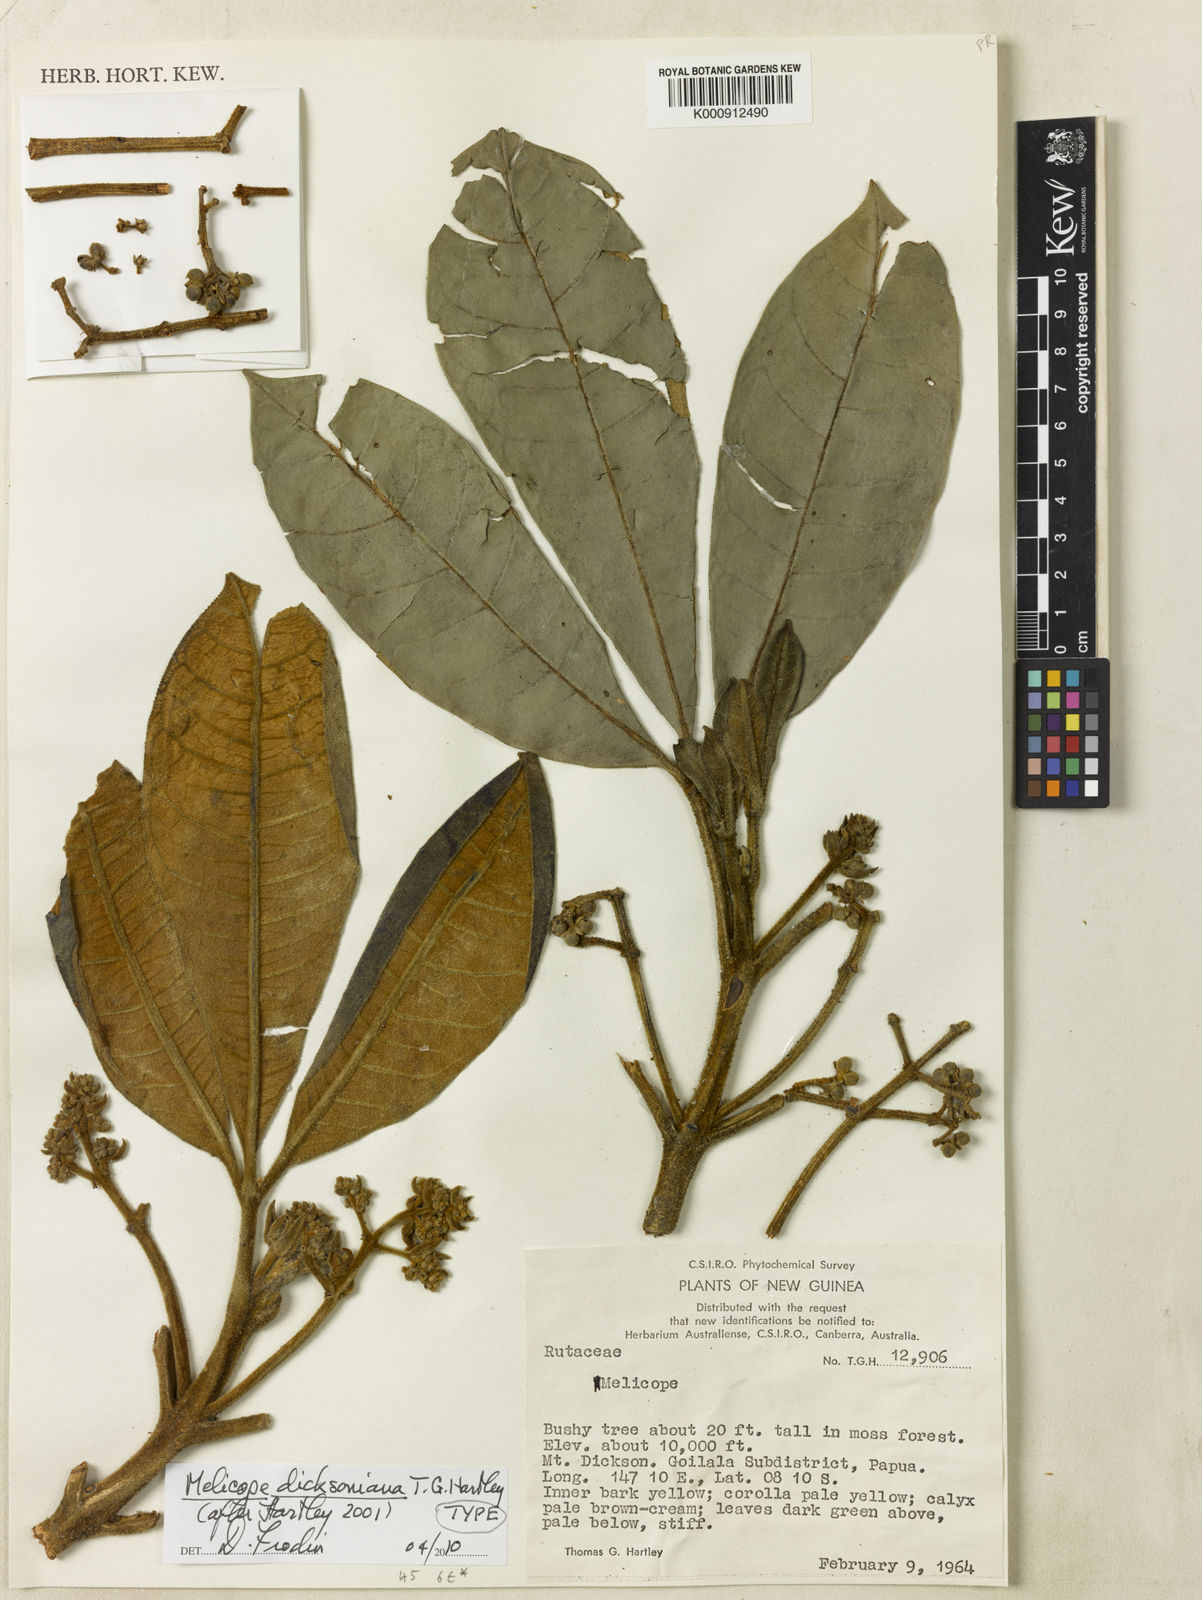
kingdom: Plantae
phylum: Tracheophyta
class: Magnoliopsida
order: Sapindales
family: Rutaceae
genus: Melicope
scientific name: Melicope dicksoniana
